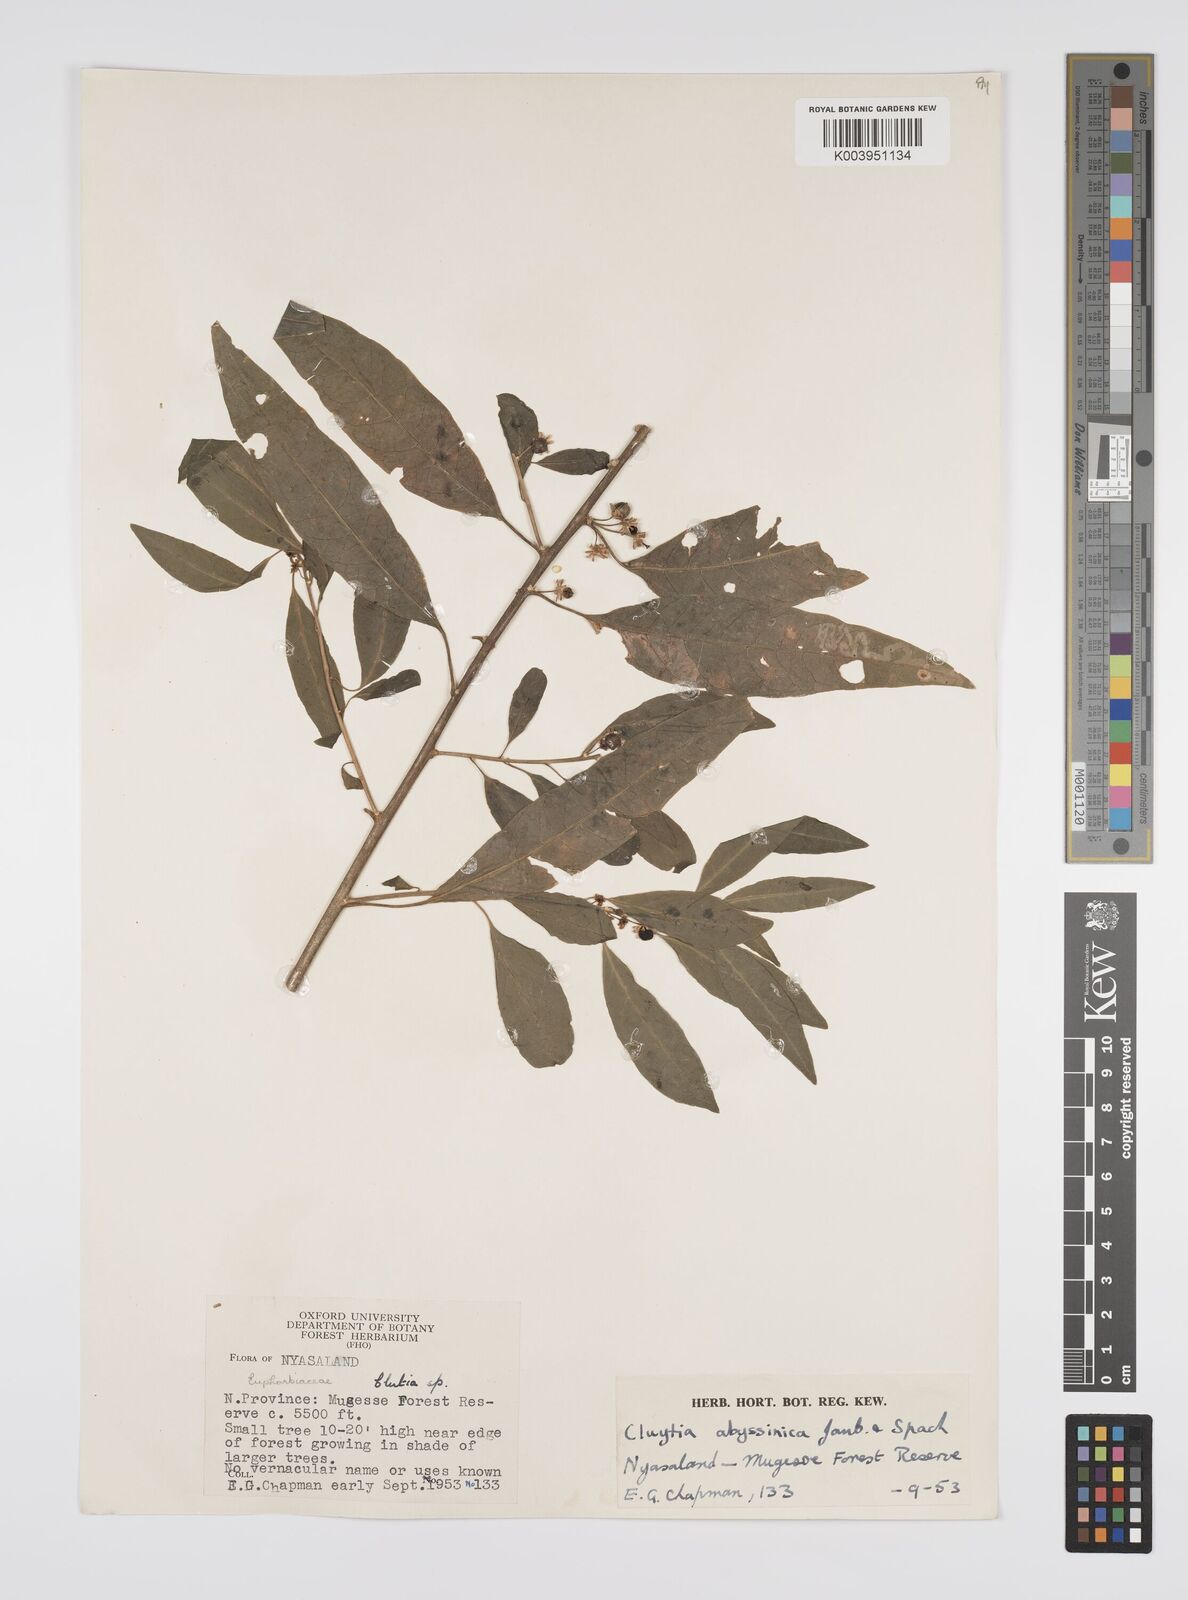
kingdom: Plantae
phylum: Tracheophyta
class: Magnoliopsida
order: Malpighiales
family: Peraceae
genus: Clutia
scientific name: Clutia abyssinica
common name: Large lightning bush
